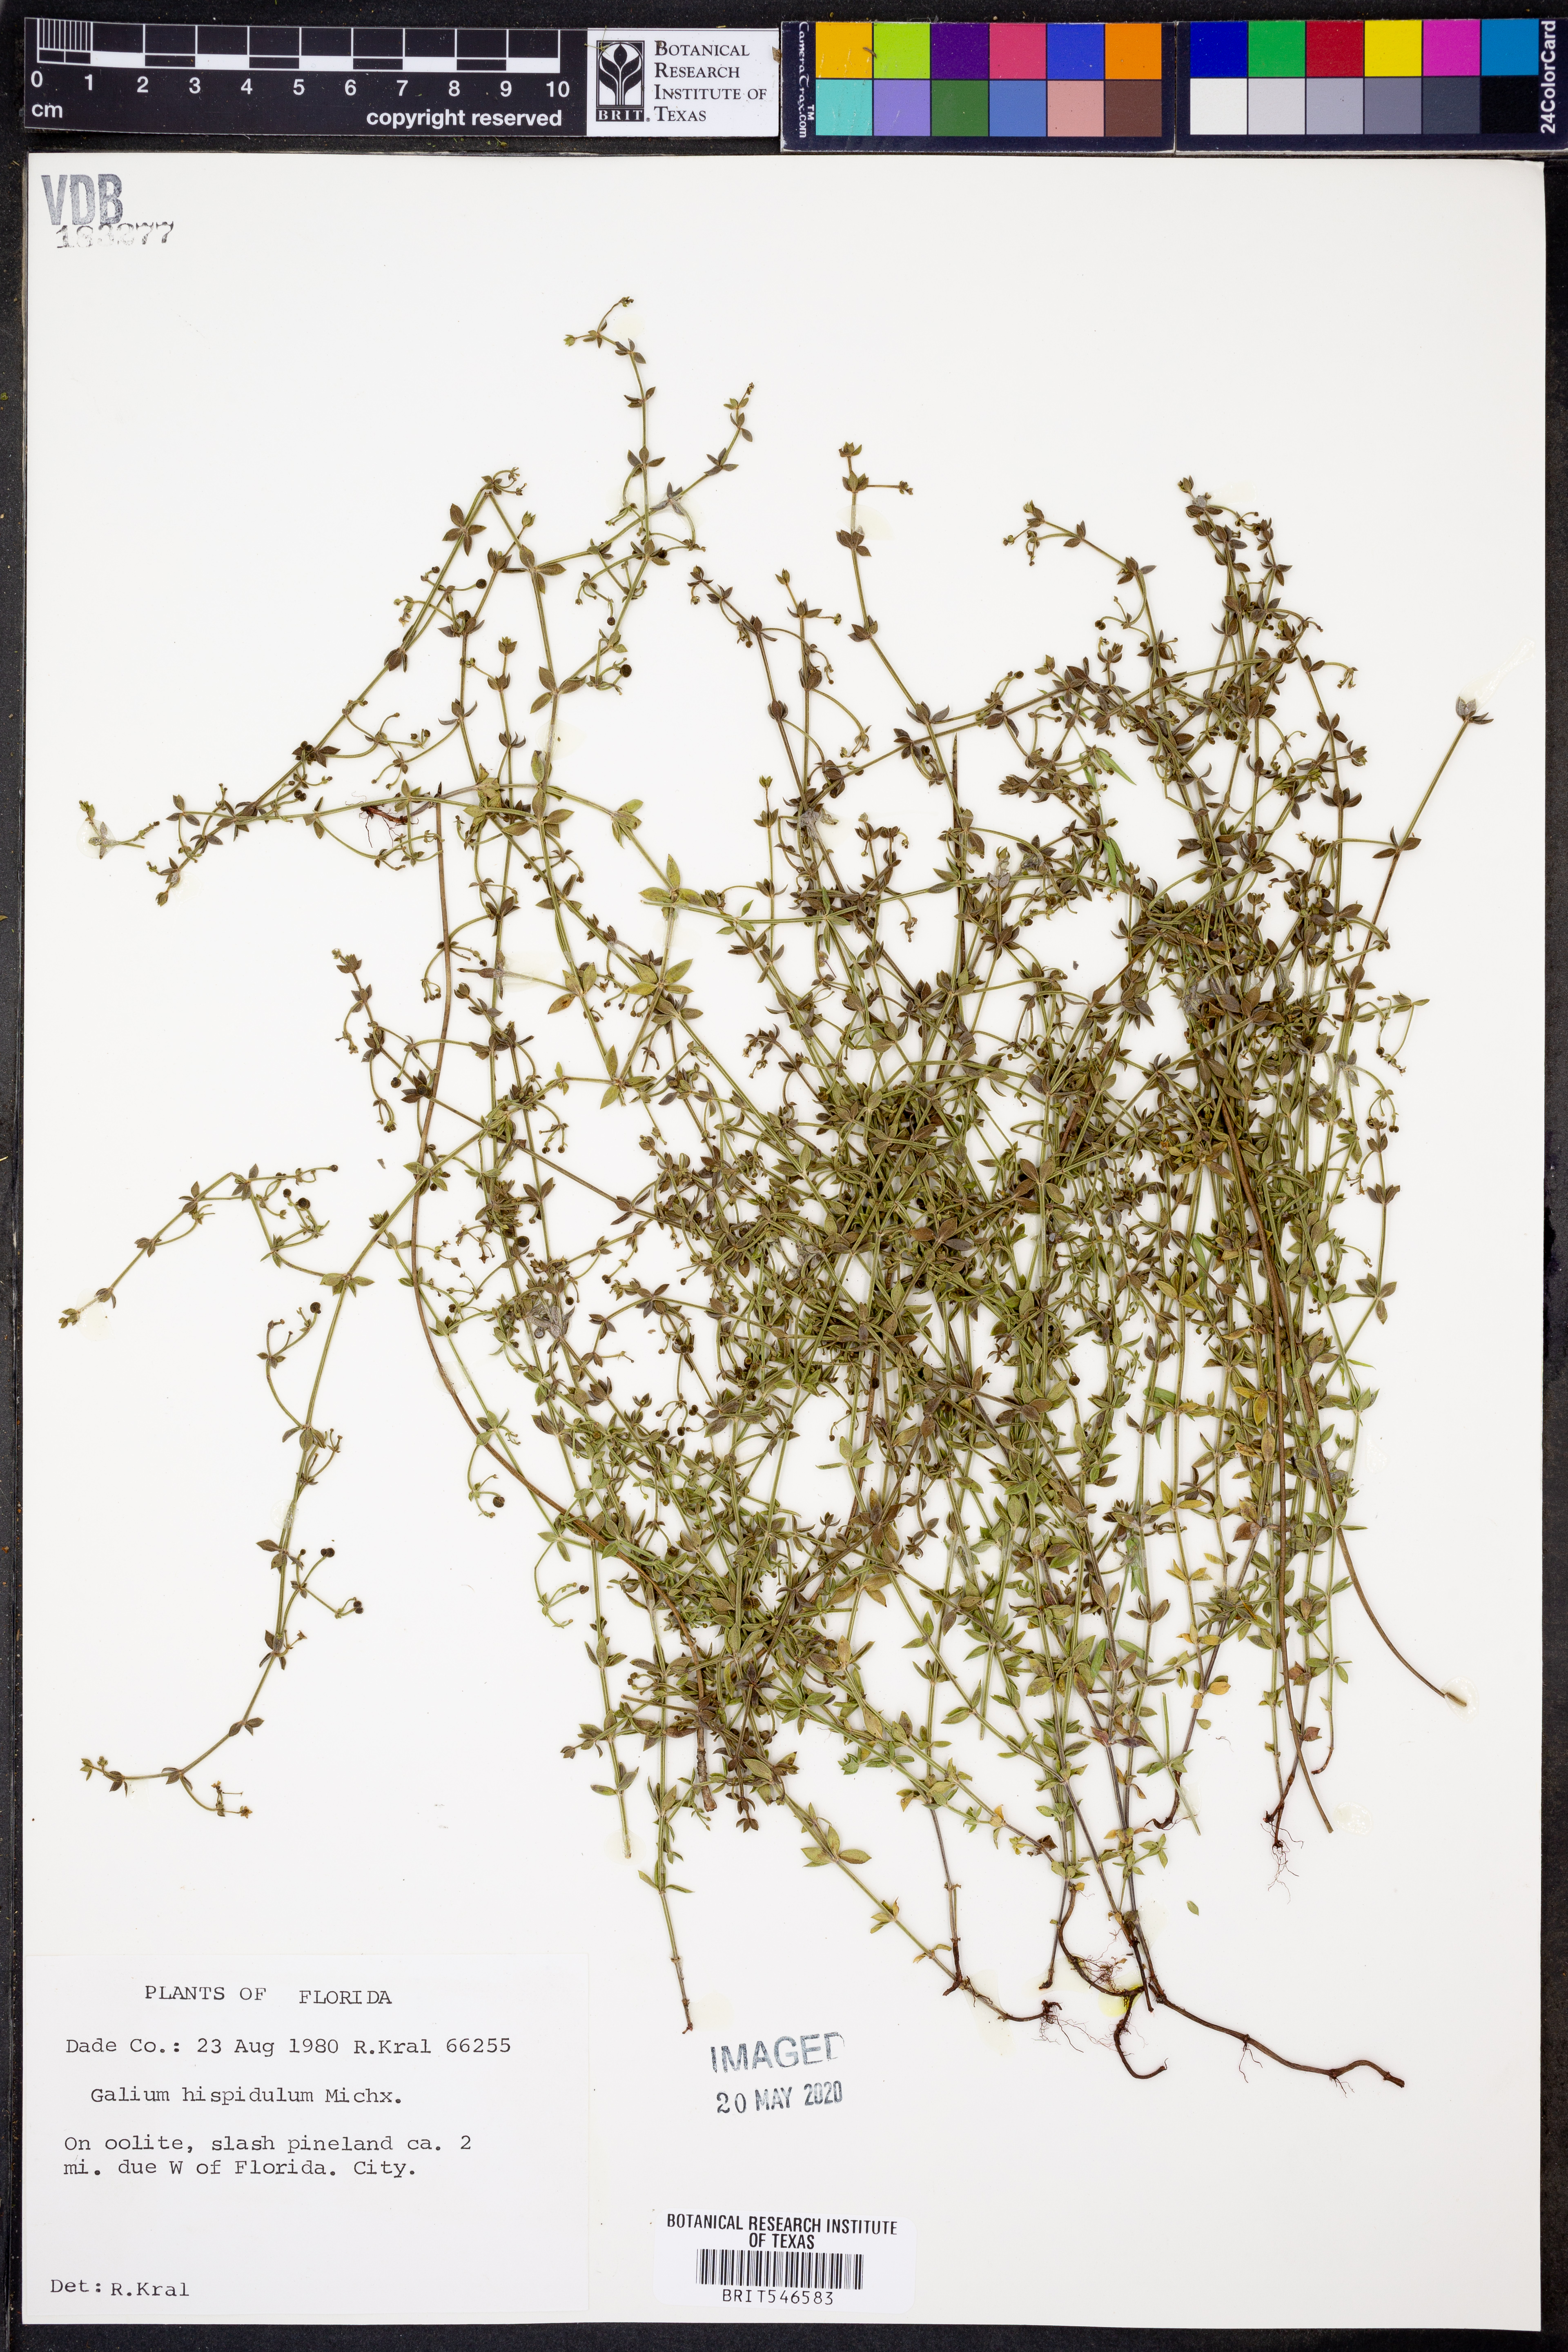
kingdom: Plantae
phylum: Tracheophyta
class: Magnoliopsida
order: Gentianales
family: Rubiaceae
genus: Galium
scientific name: Galium bermudense
